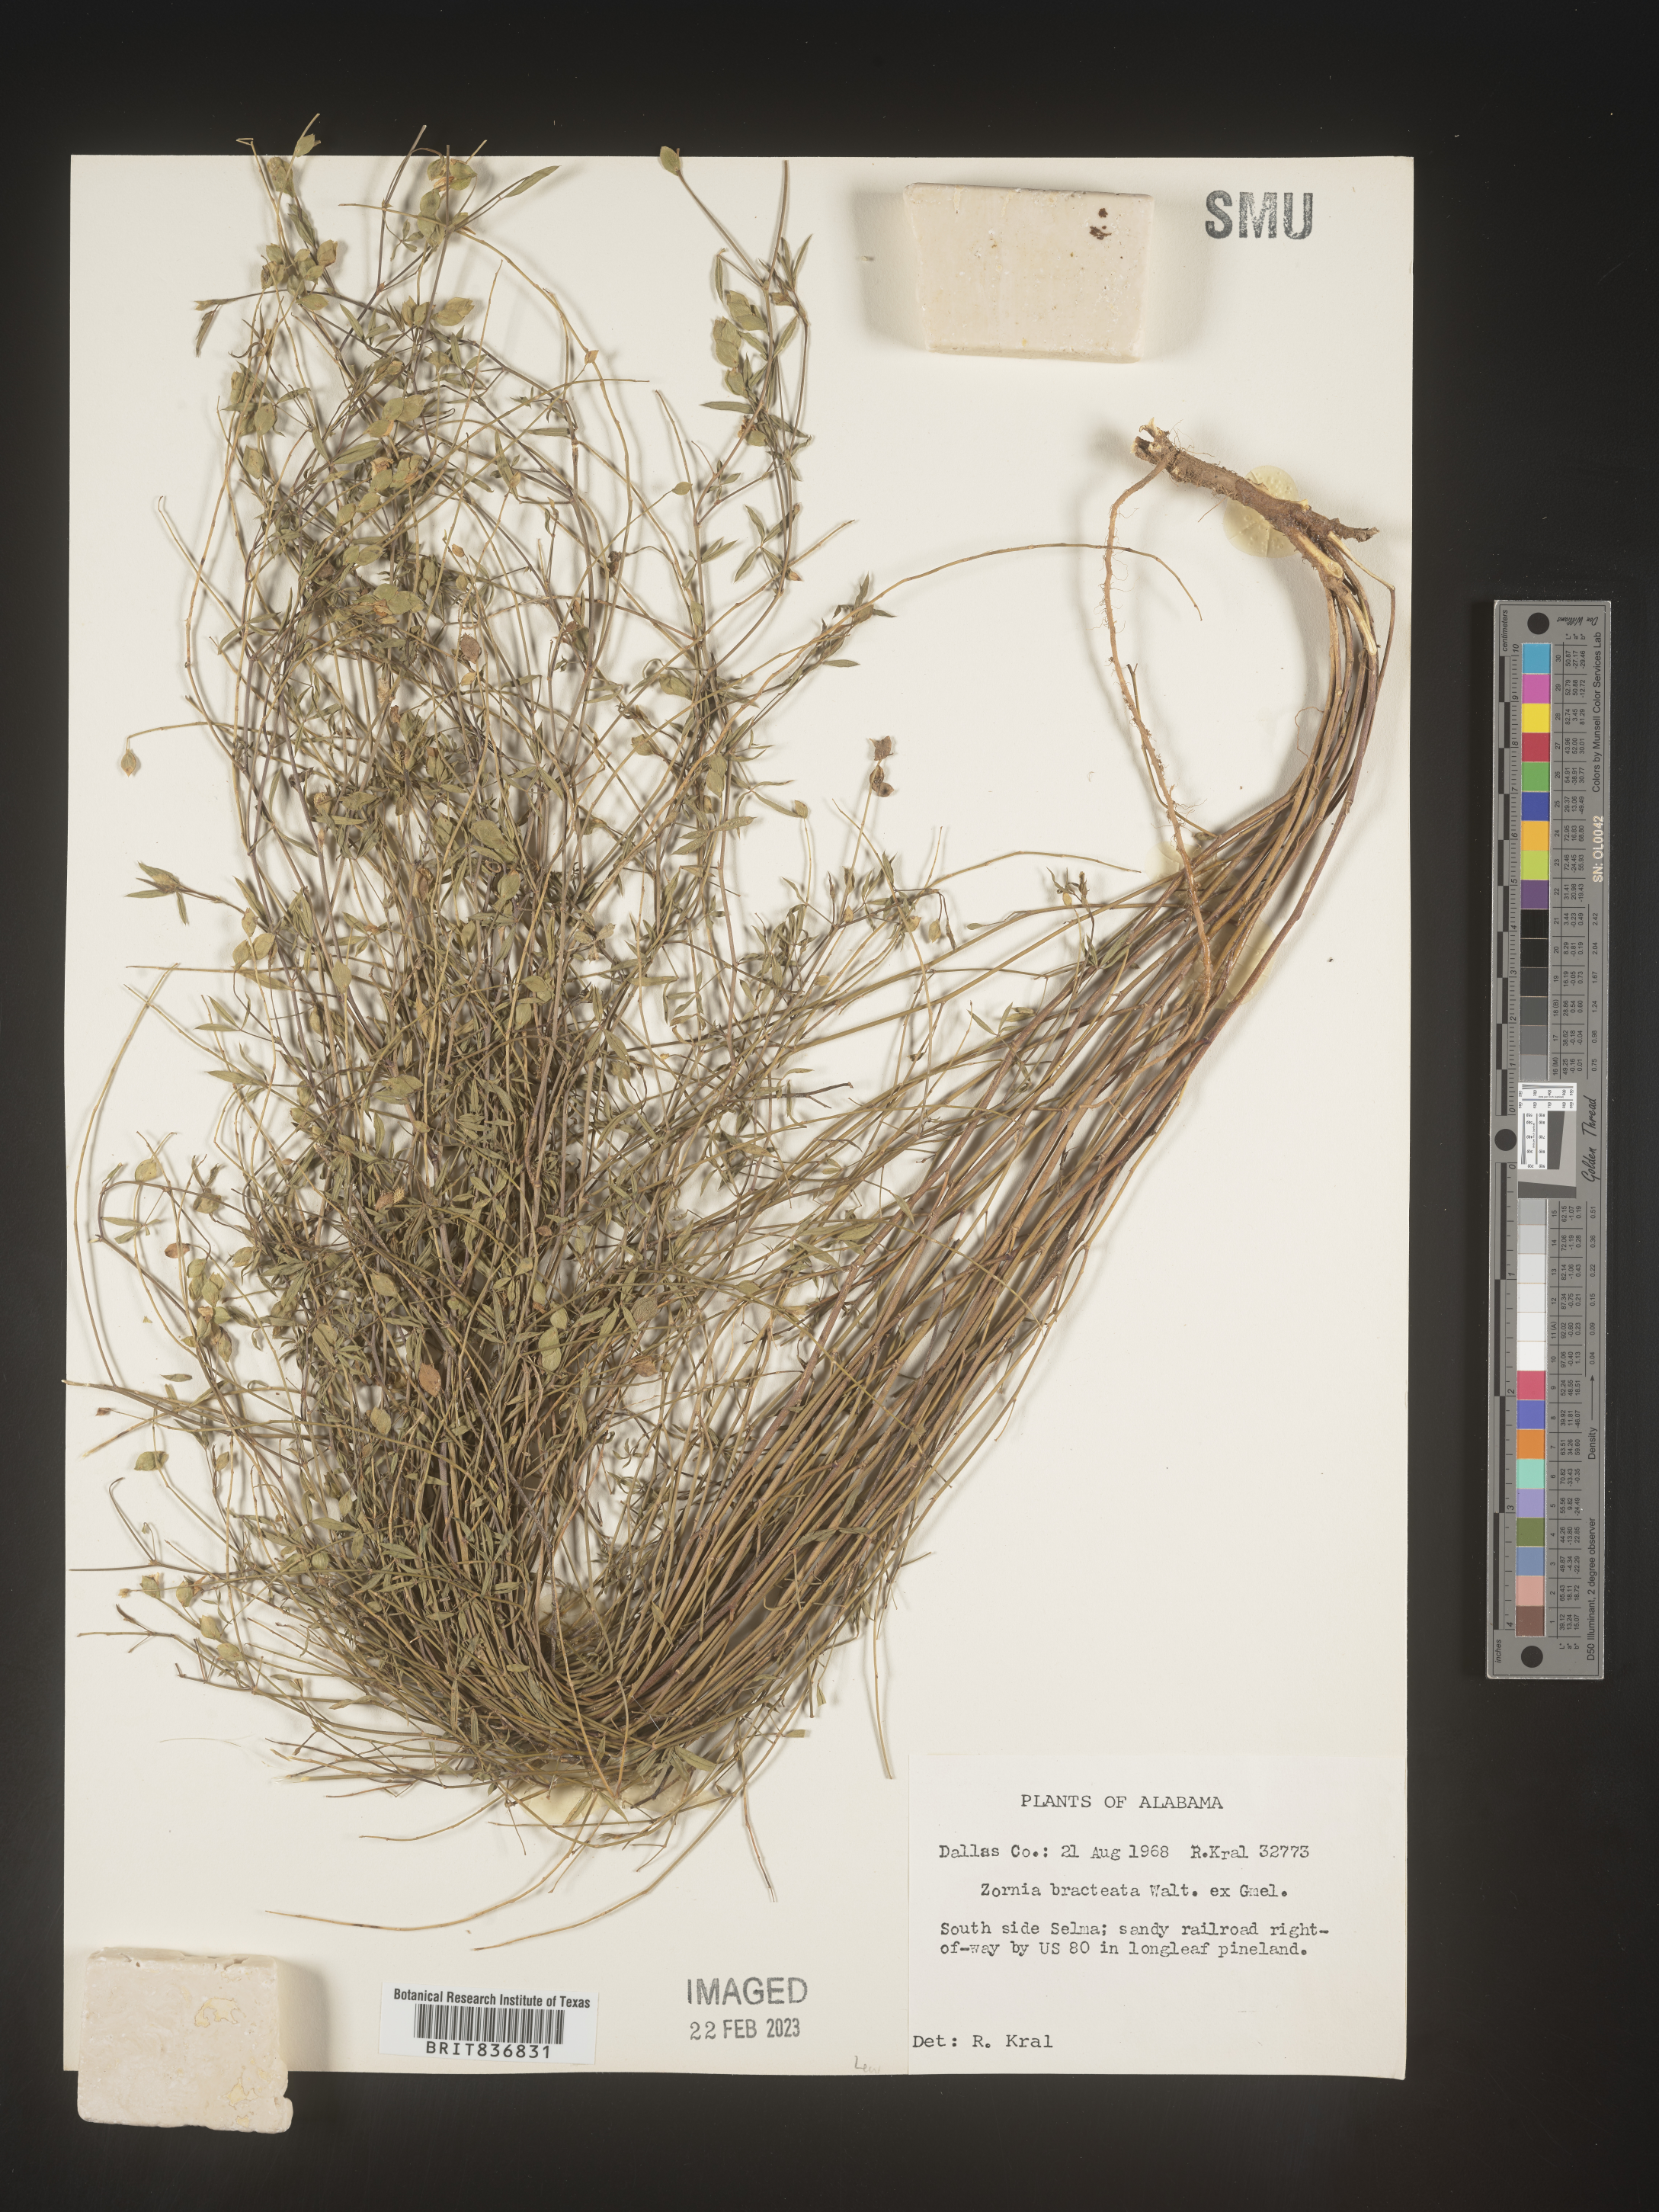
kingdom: Plantae
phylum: Tracheophyta
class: Magnoliopsida
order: Fabales
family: Fabaceae
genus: Zornia
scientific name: Zornia
